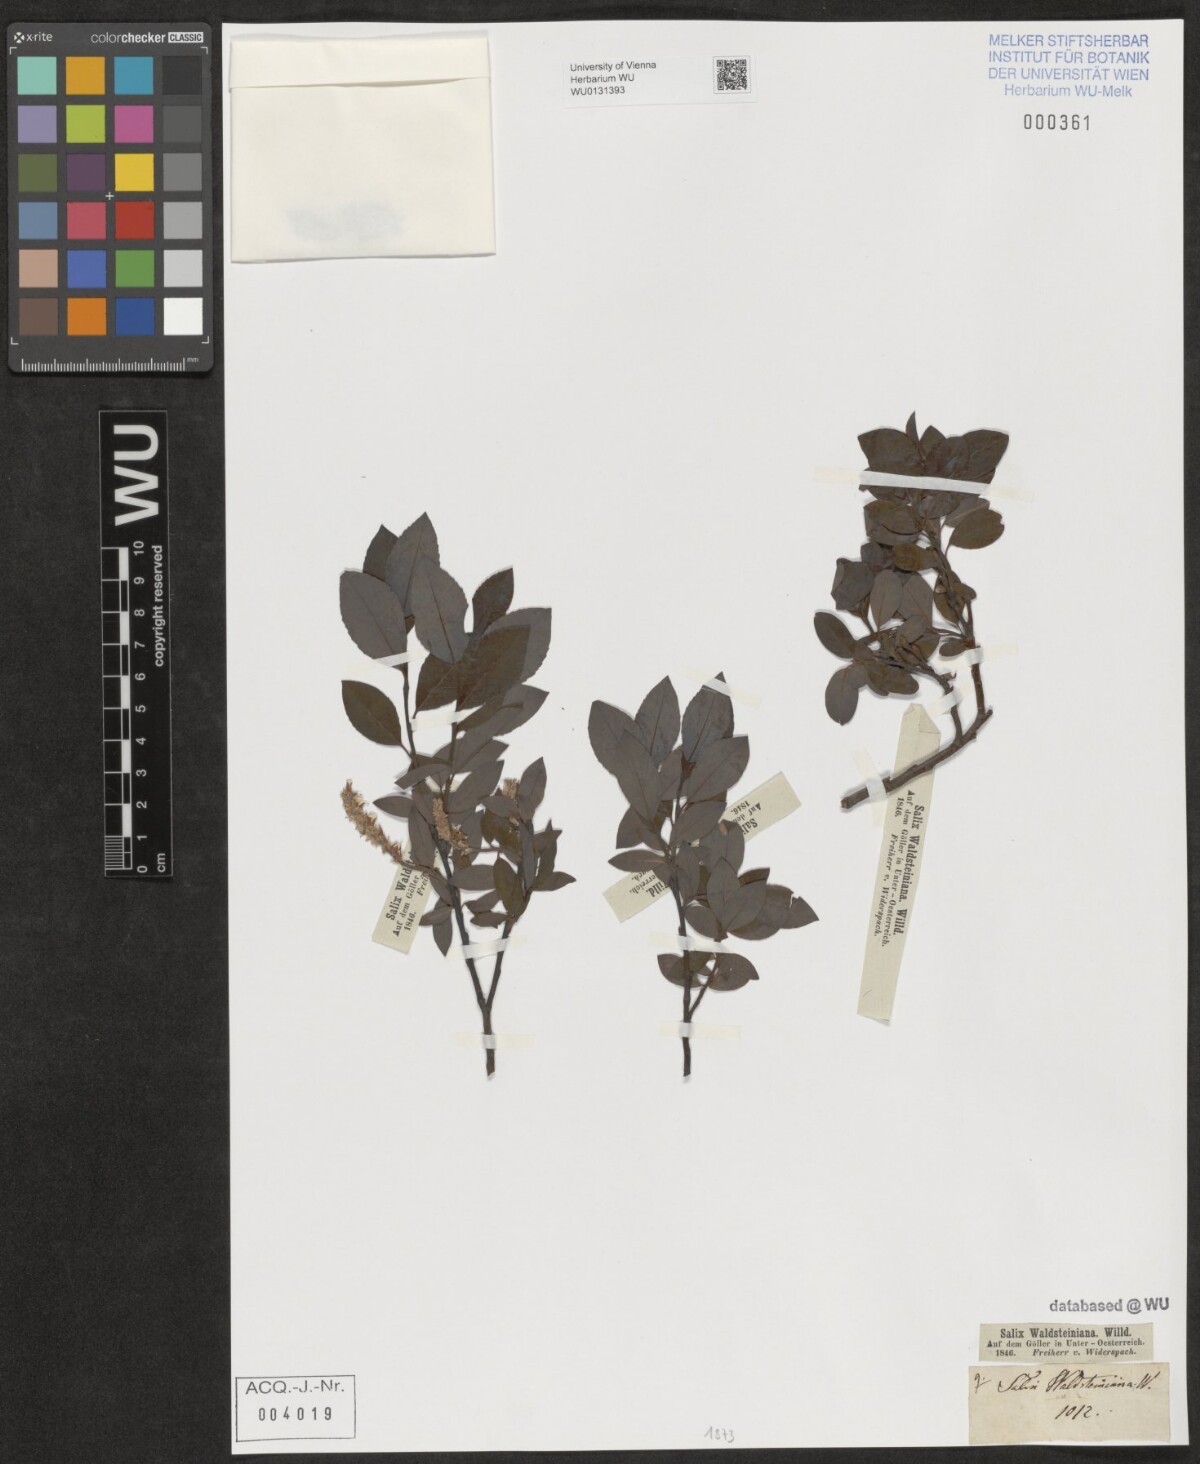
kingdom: Plantae
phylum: Tracheophyta
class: Magnoliopsida
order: Malpighiales
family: Salicaceae
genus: Salix
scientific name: Salix waldsteiniana
